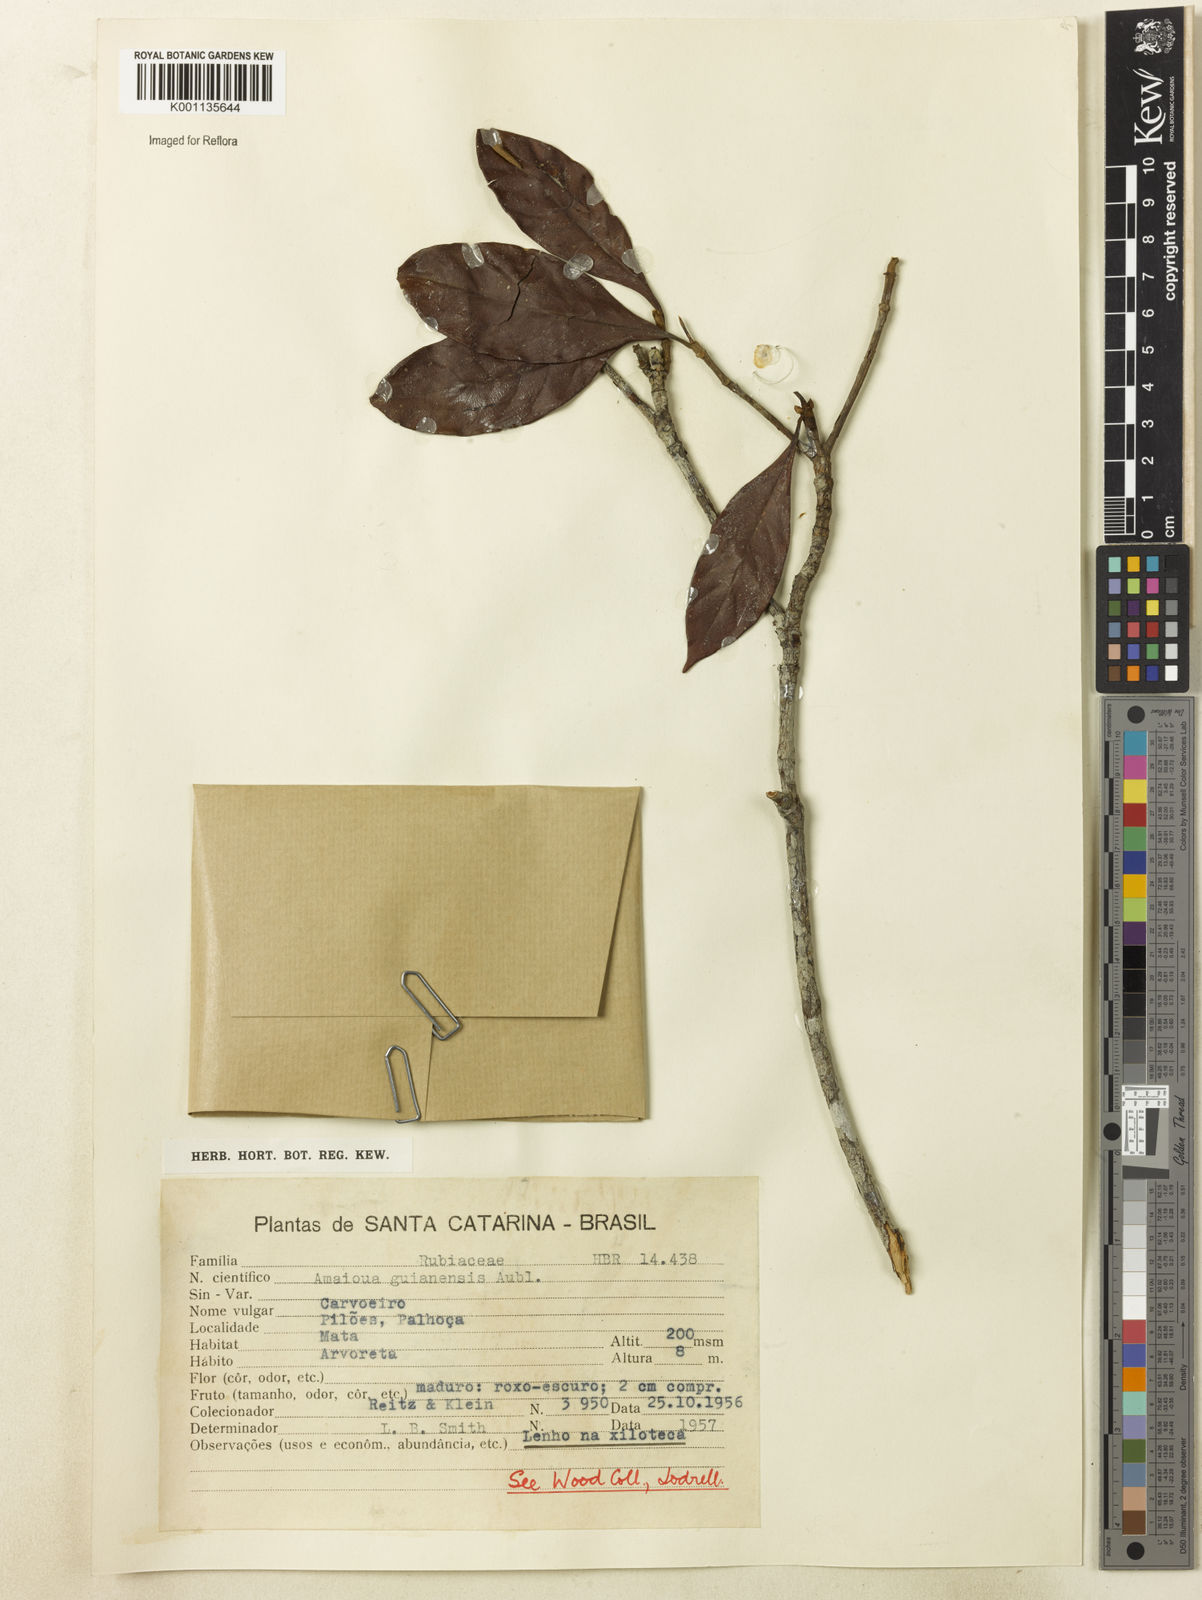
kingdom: Plantae
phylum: Tracheophyta
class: Magnoliopsida
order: Gentianales
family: Rubiaceae
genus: Amaioua
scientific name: Amaioua intermedia
